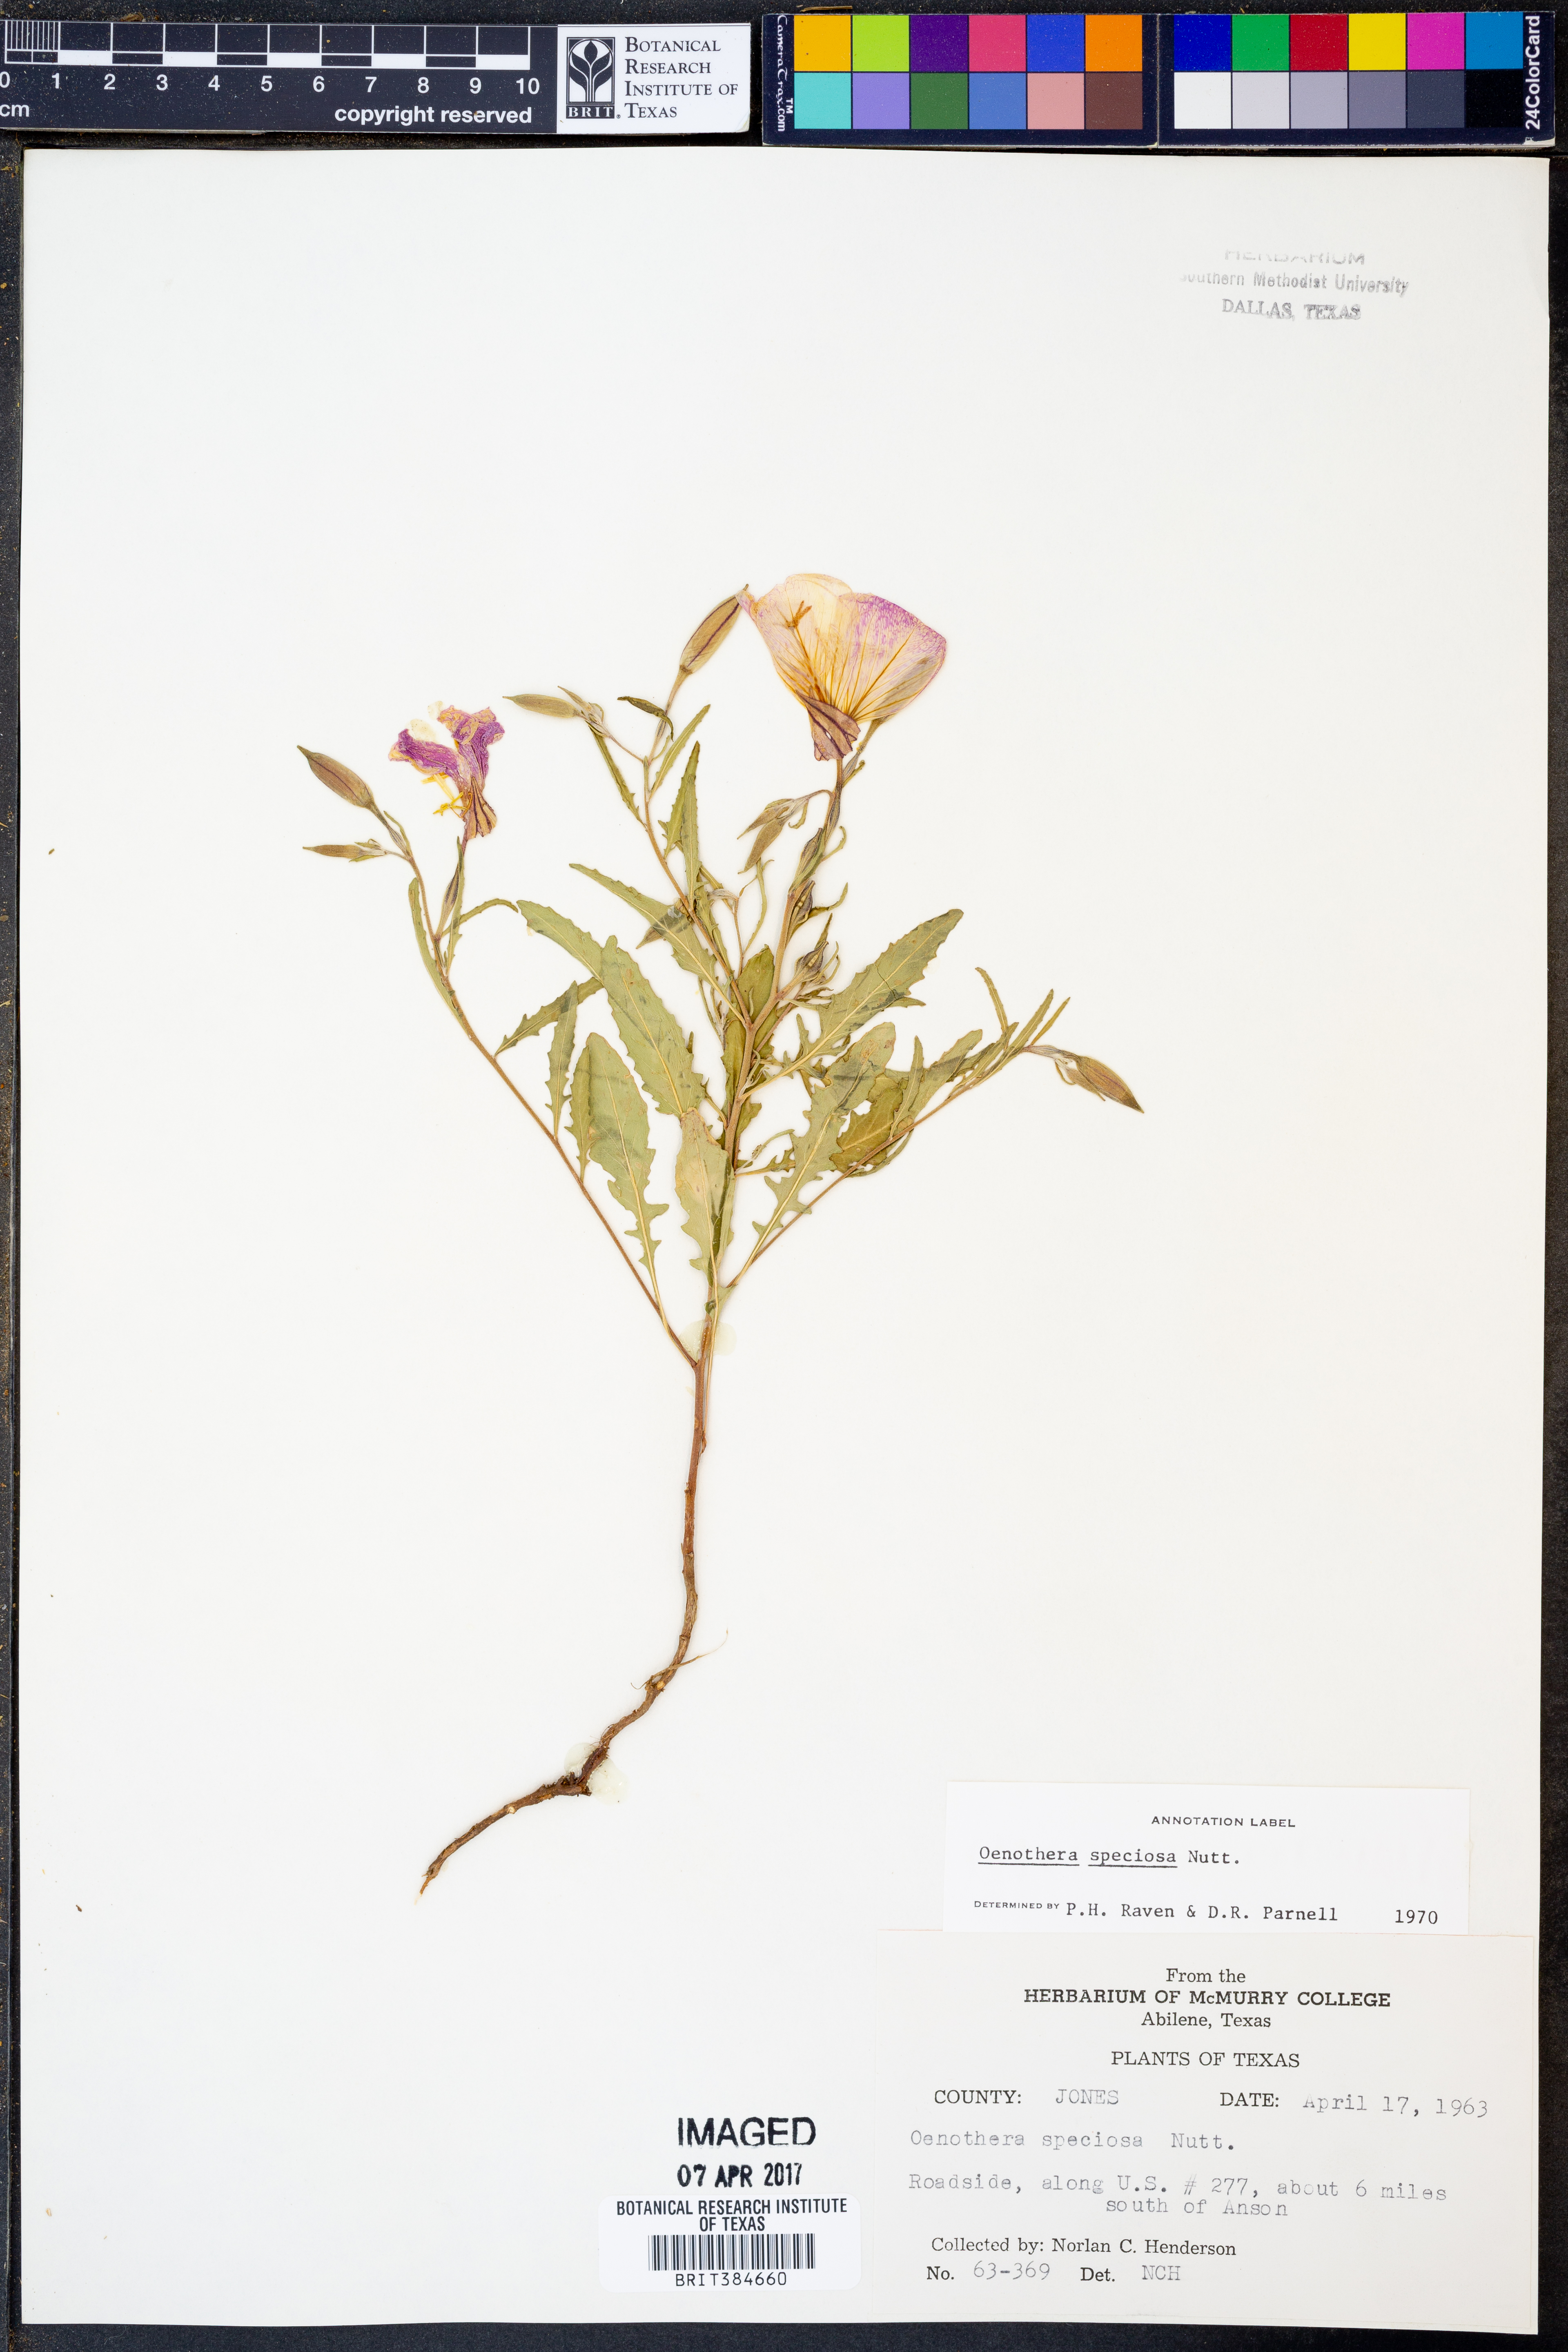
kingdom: Plantae
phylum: Tracheophyta
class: Magnoliopsida
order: Myrtales
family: Onagraceae
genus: Oenothera
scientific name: Oenothera speciosa
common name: White evening-primrose
